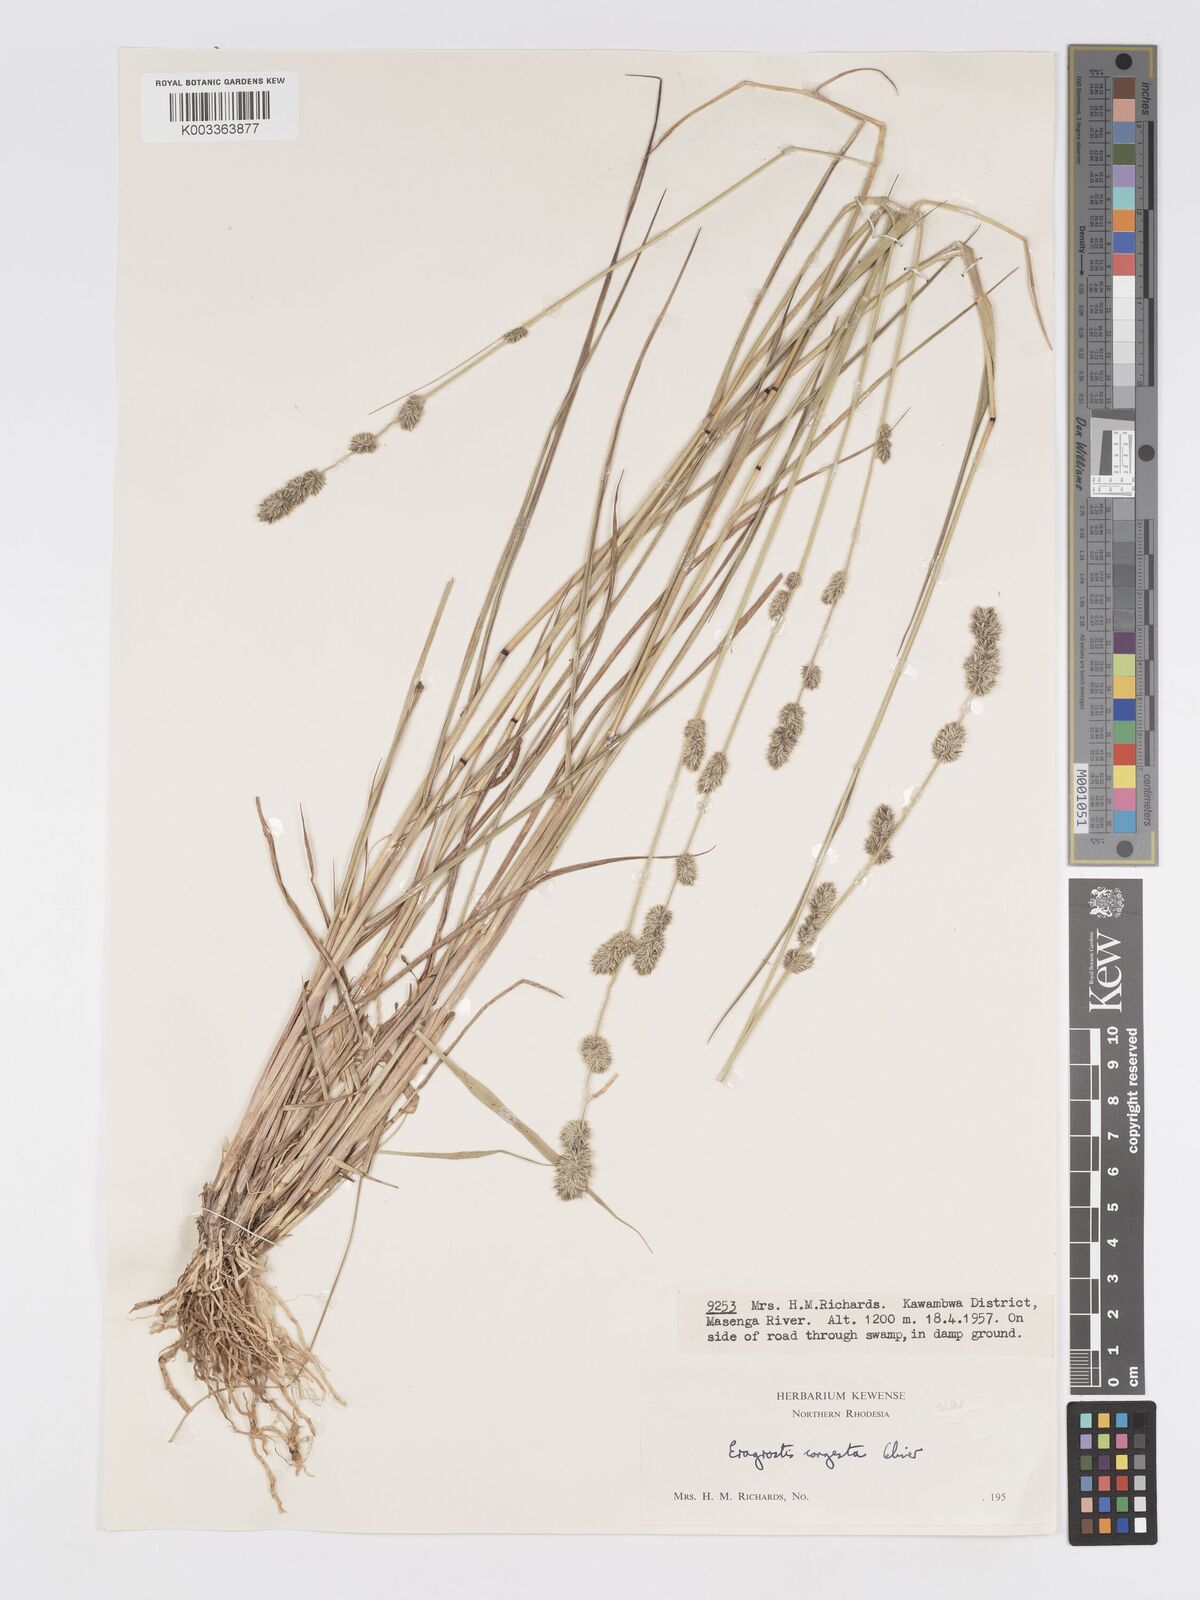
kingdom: Plantae
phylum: Tracheophyta
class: Liliopsida
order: Poales
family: Poaceae
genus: Eragrostis
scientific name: Eragrostis congesta
